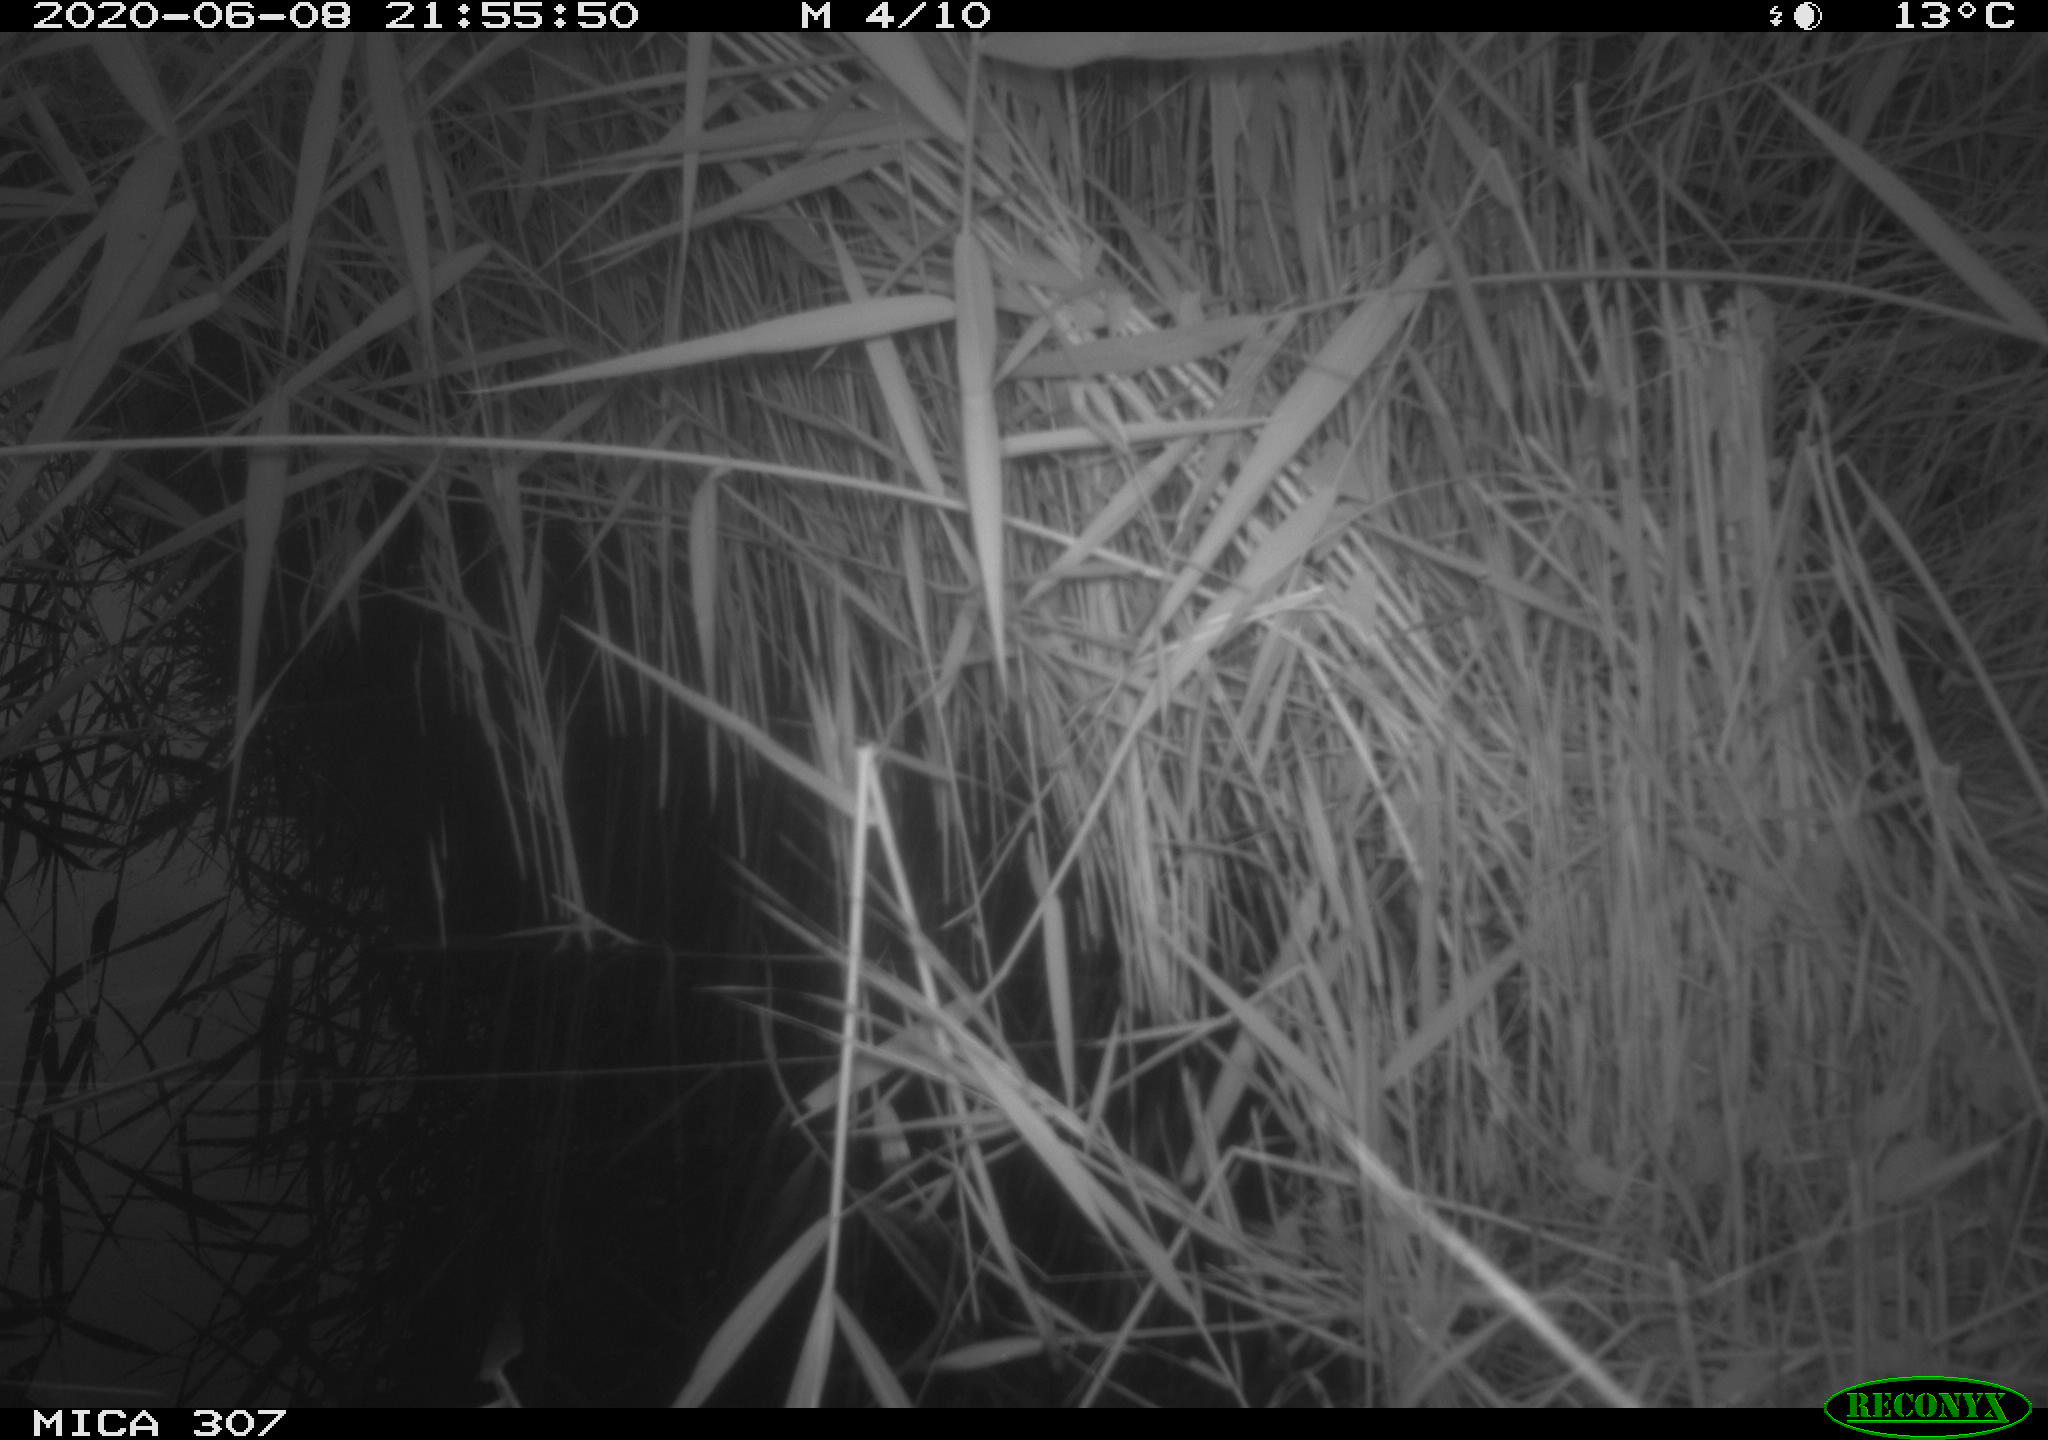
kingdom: Animalia
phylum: Chordata
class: Mammalia
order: Rodentia
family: Muridae
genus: Rattus
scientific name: Rattus norvegicus
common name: Brown rat
